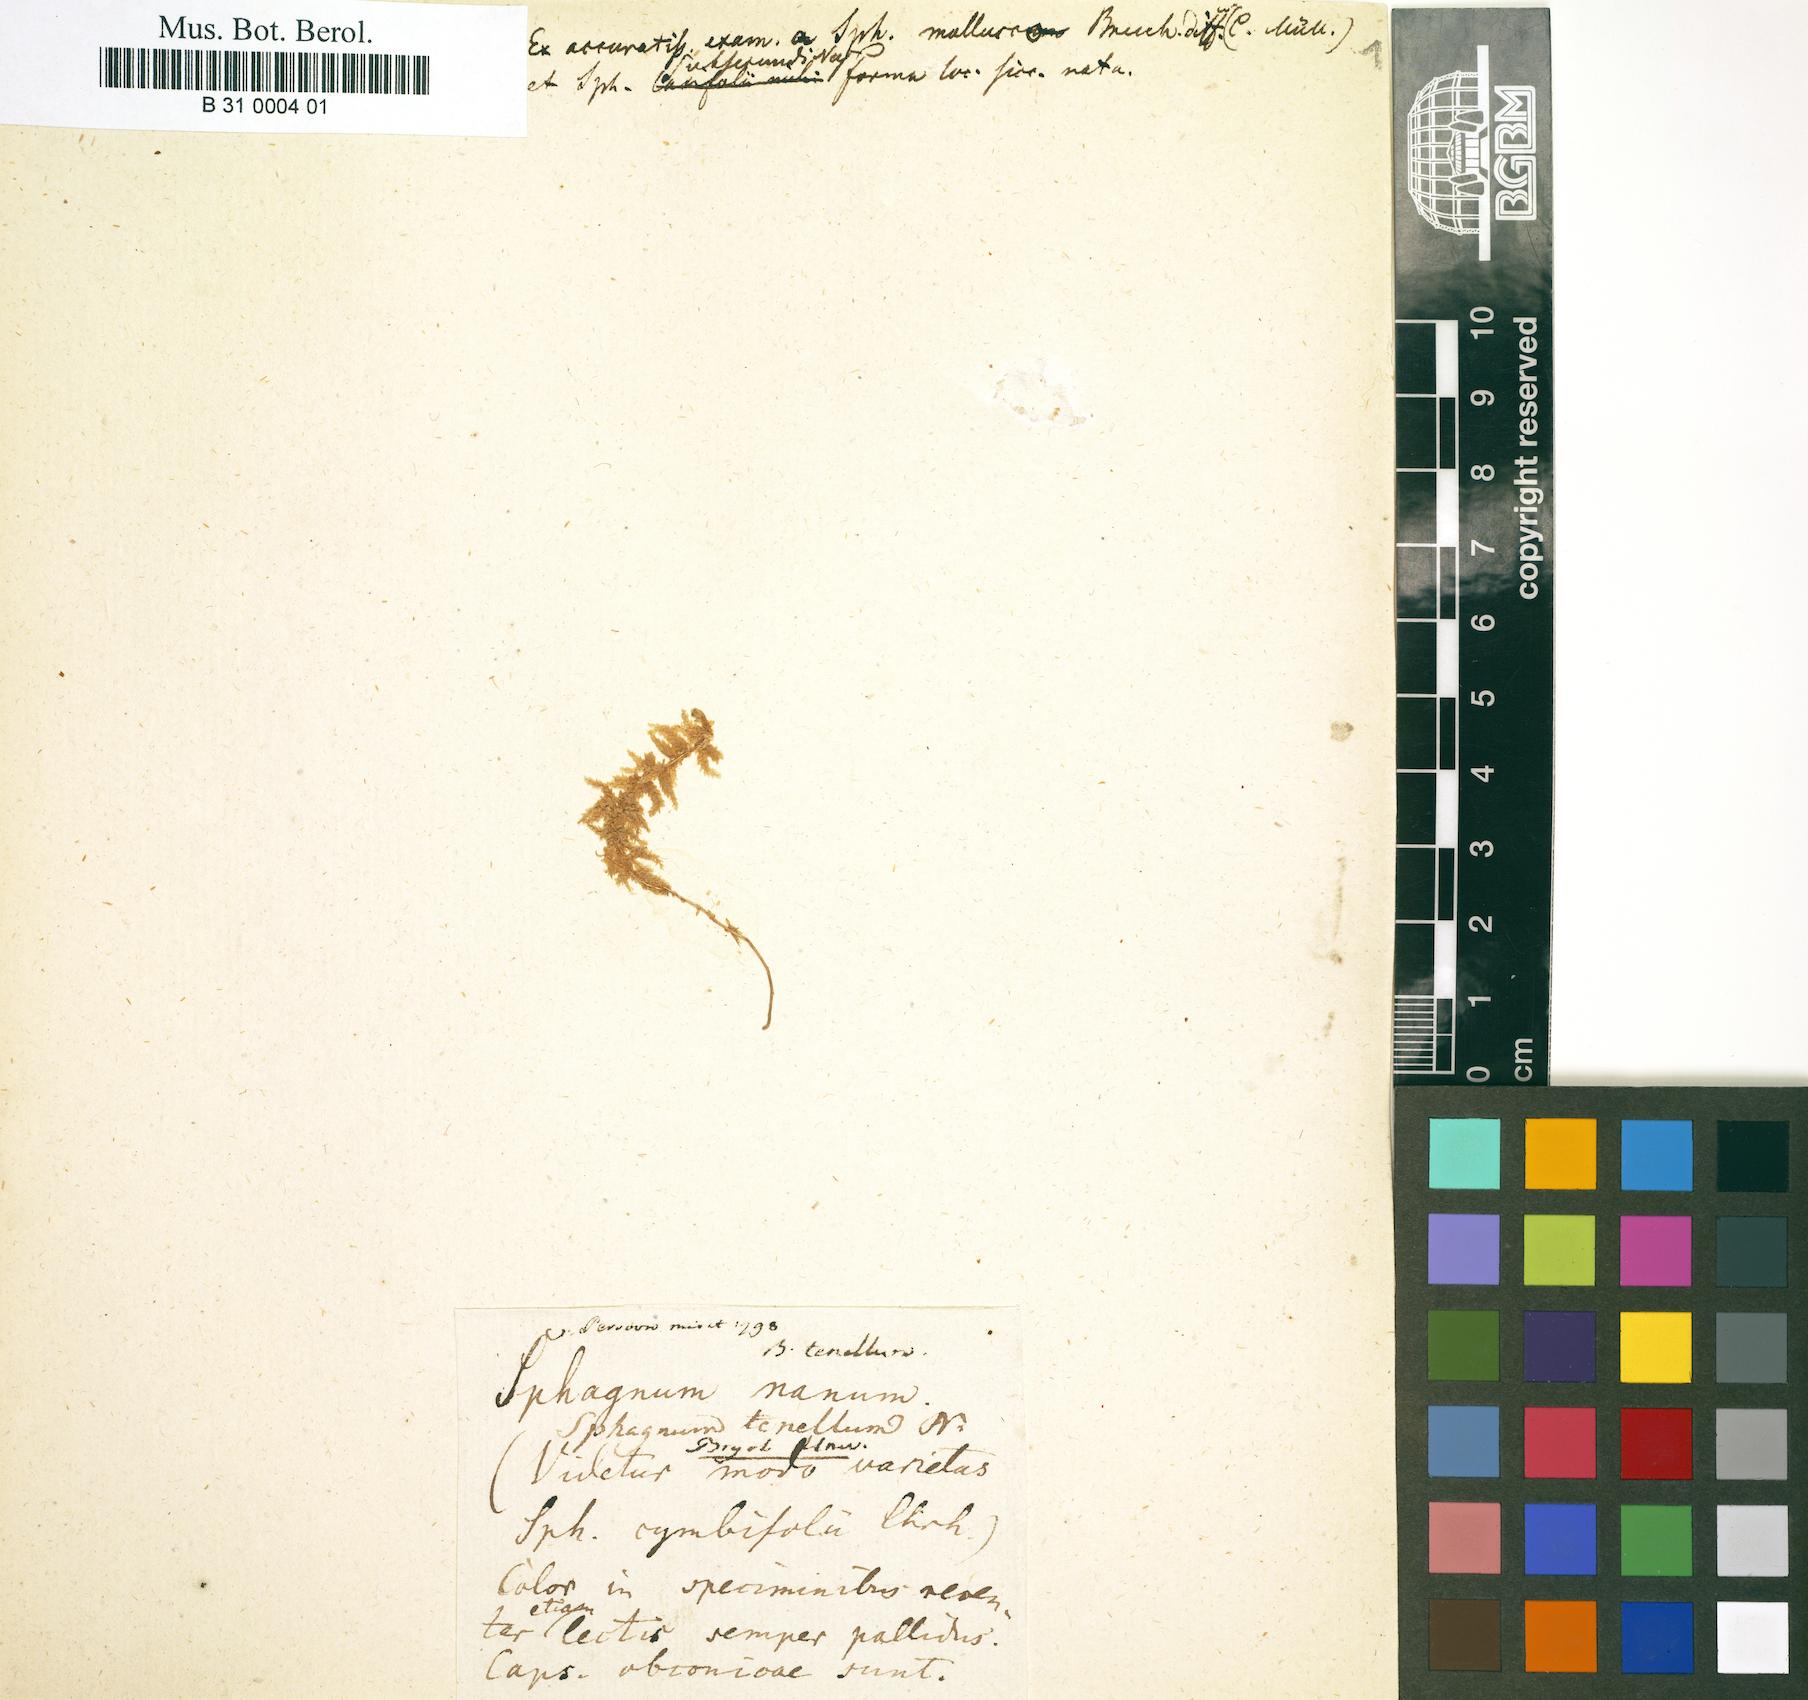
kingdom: Plantae
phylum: Bryophyta
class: Sphagnopsida
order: Sphagnales
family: Sphagnaceae
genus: Sphagnum
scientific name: Sphagnum tenellum
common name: Soft bog-moss
